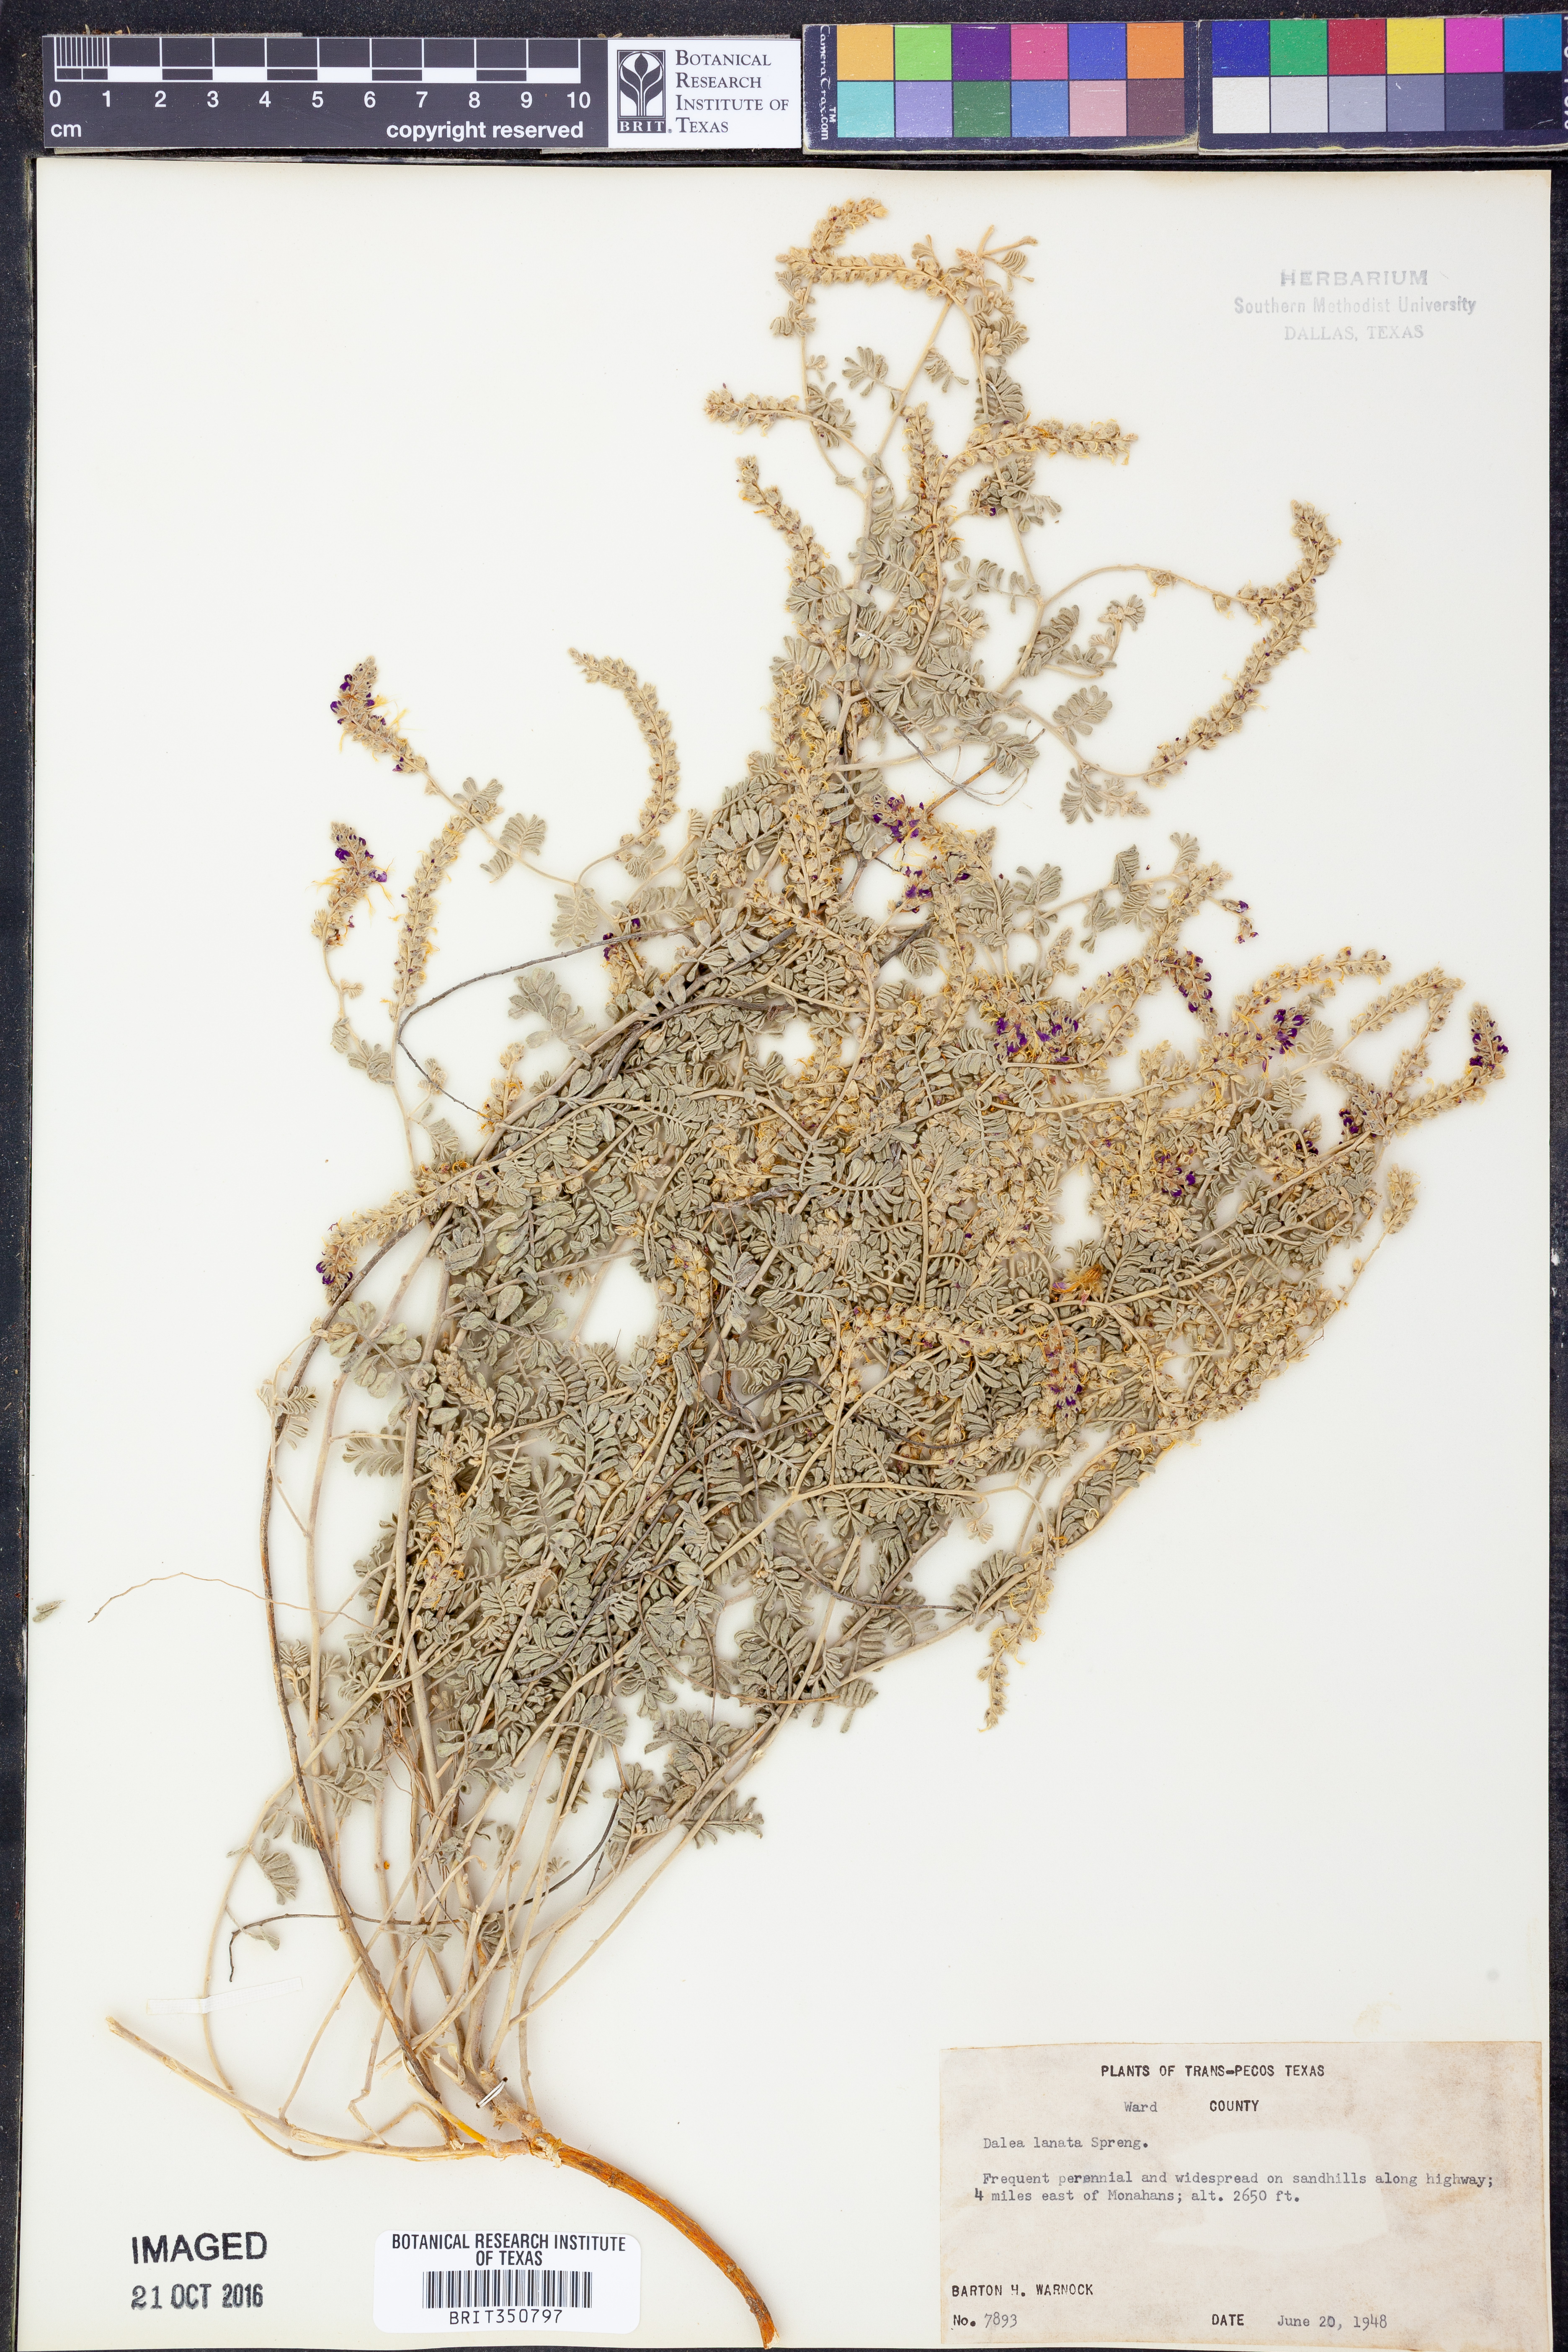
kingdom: Plantae
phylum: Tracheophyta
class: Magnoliopsida
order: Fabales
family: Fabaceae
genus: Dalea
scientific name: Dalea lanata
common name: Woolly dalea
